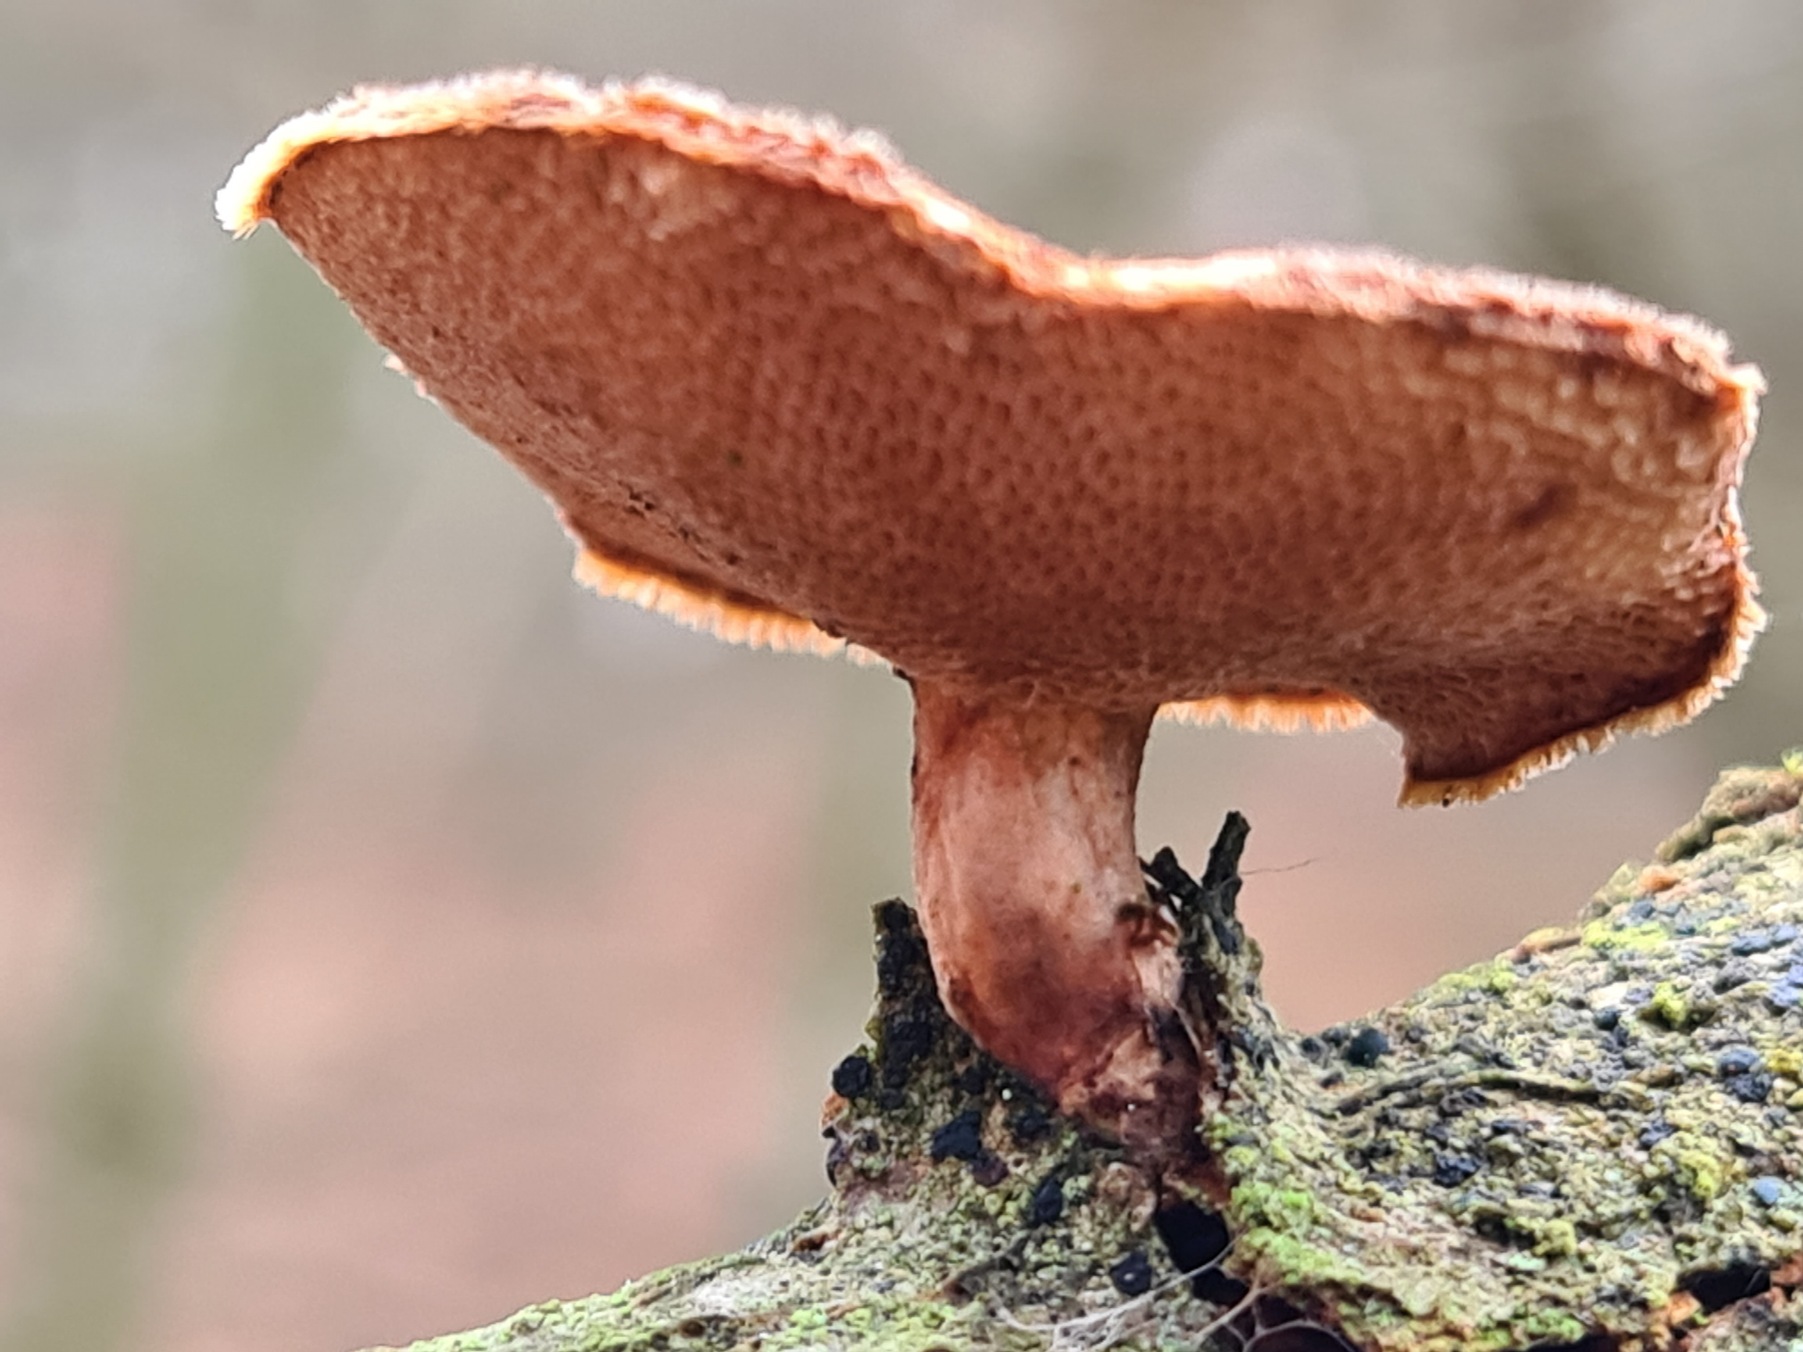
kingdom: Fungi
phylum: Basidiomycota
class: Agaricomycetes
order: Polyporales
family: Polyporaceae
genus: Lentinus
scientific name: Lentinus brumalis
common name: Vinter-stilkporesvamp
